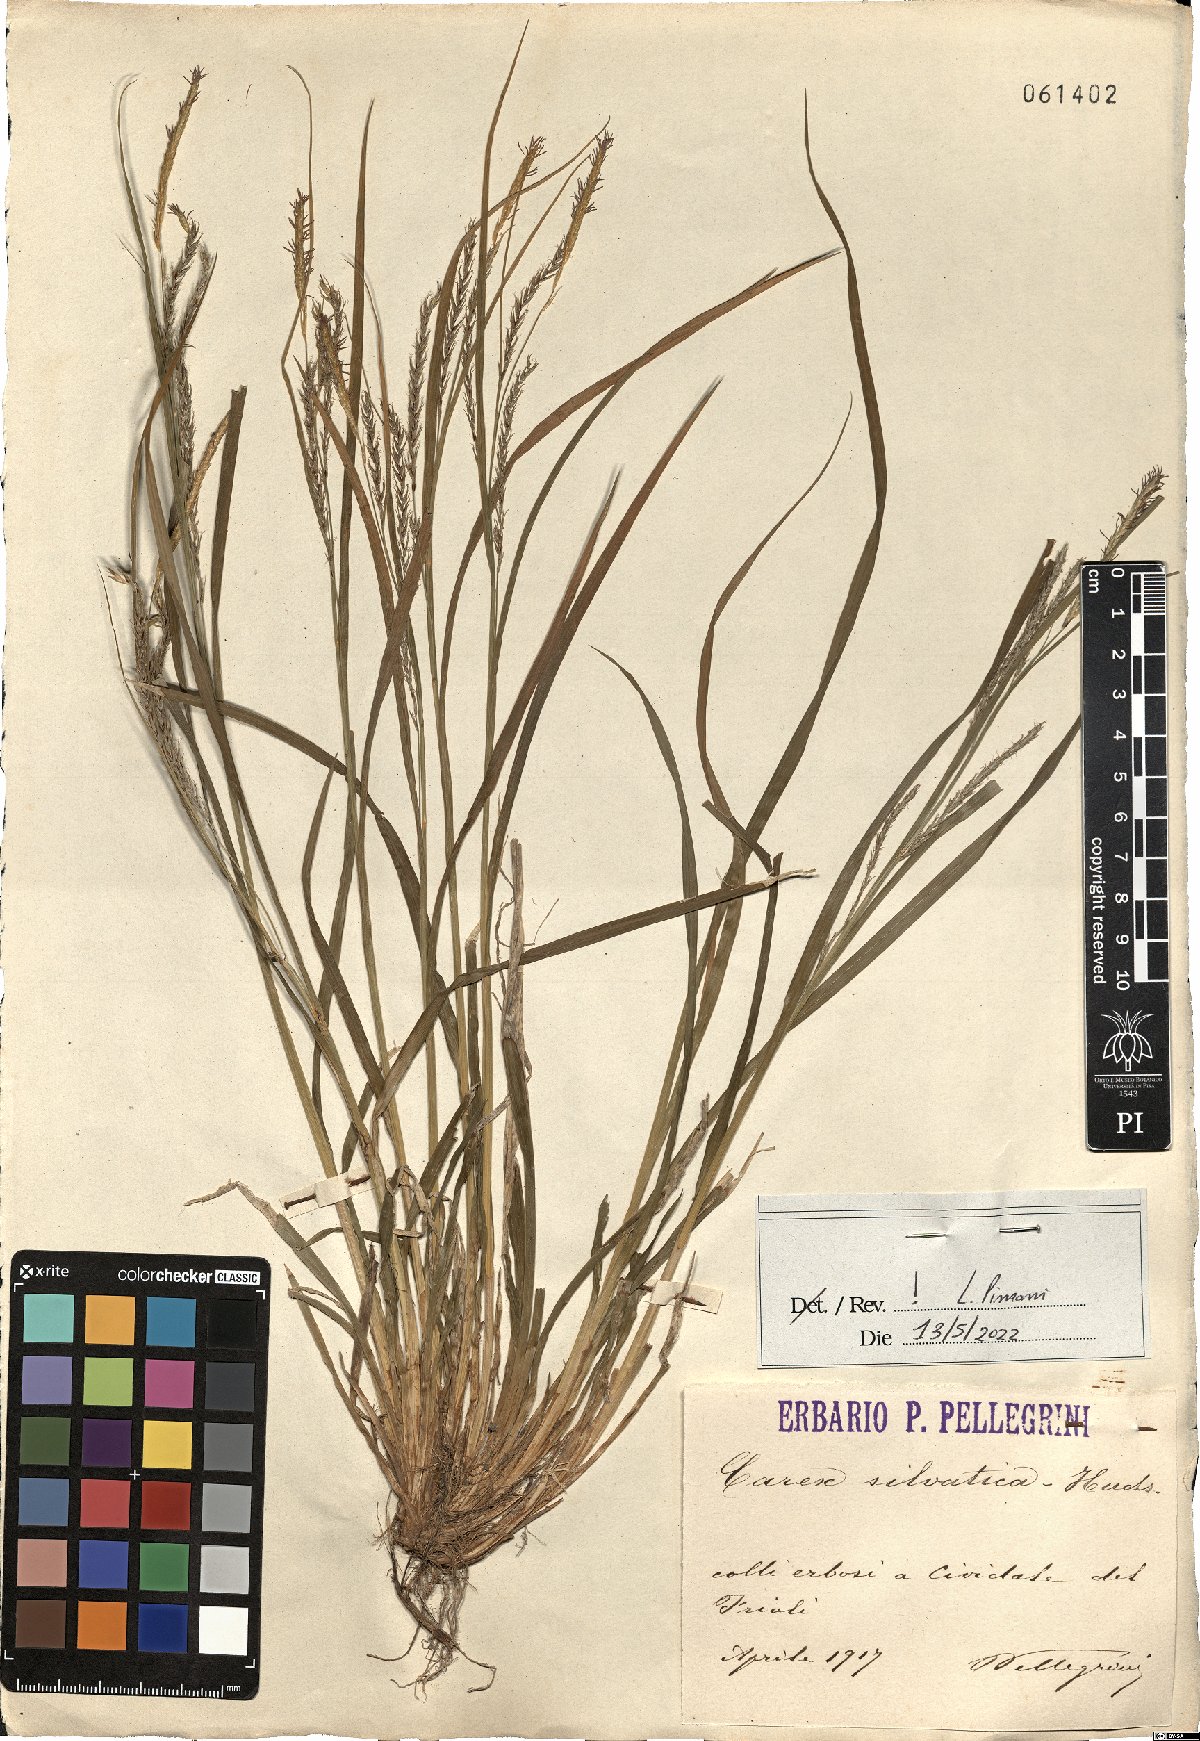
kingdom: Plantae
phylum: Tracheophyta
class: Liliopsida
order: Poales
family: Cyperaceae
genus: Carex
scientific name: Carex sylvatica
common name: Wood-sedge
